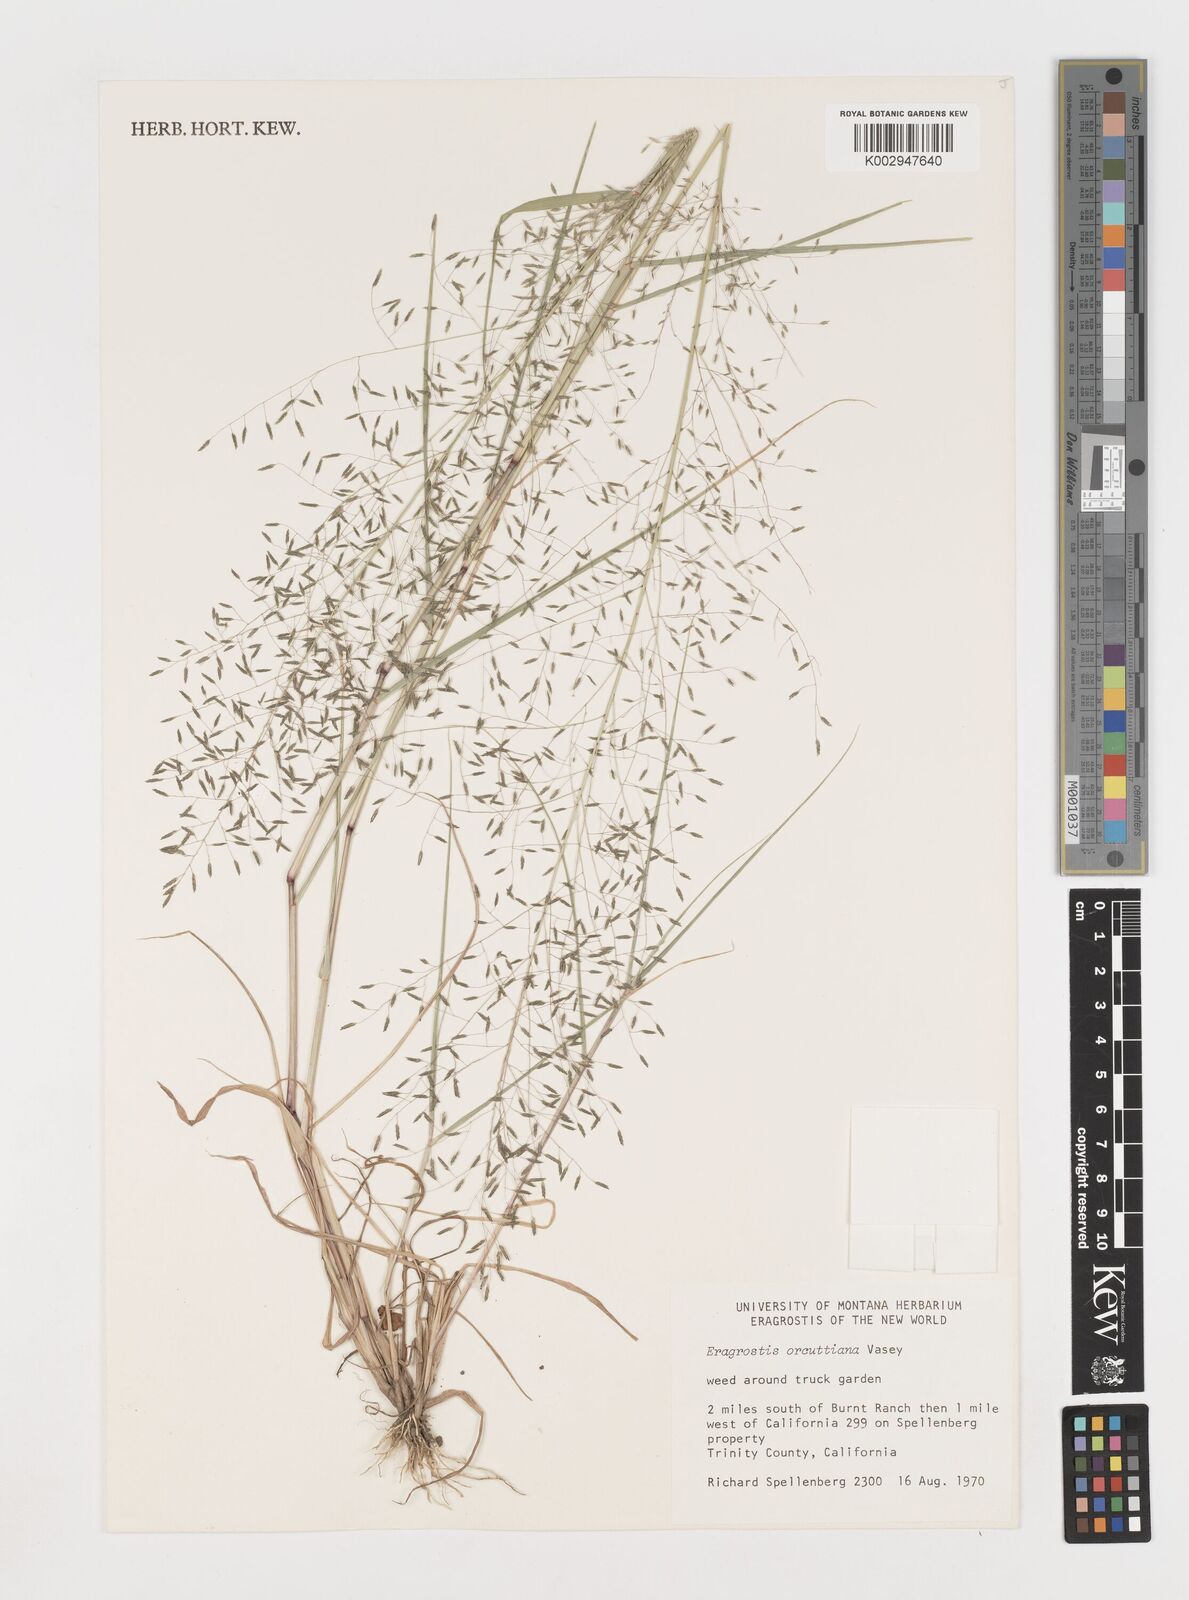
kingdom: Plantae
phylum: Tracheophyta
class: Liliopsida
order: Poales
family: Poaceae
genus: Eragrostis
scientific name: Eragrostis mexicana
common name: Mexican love grass
